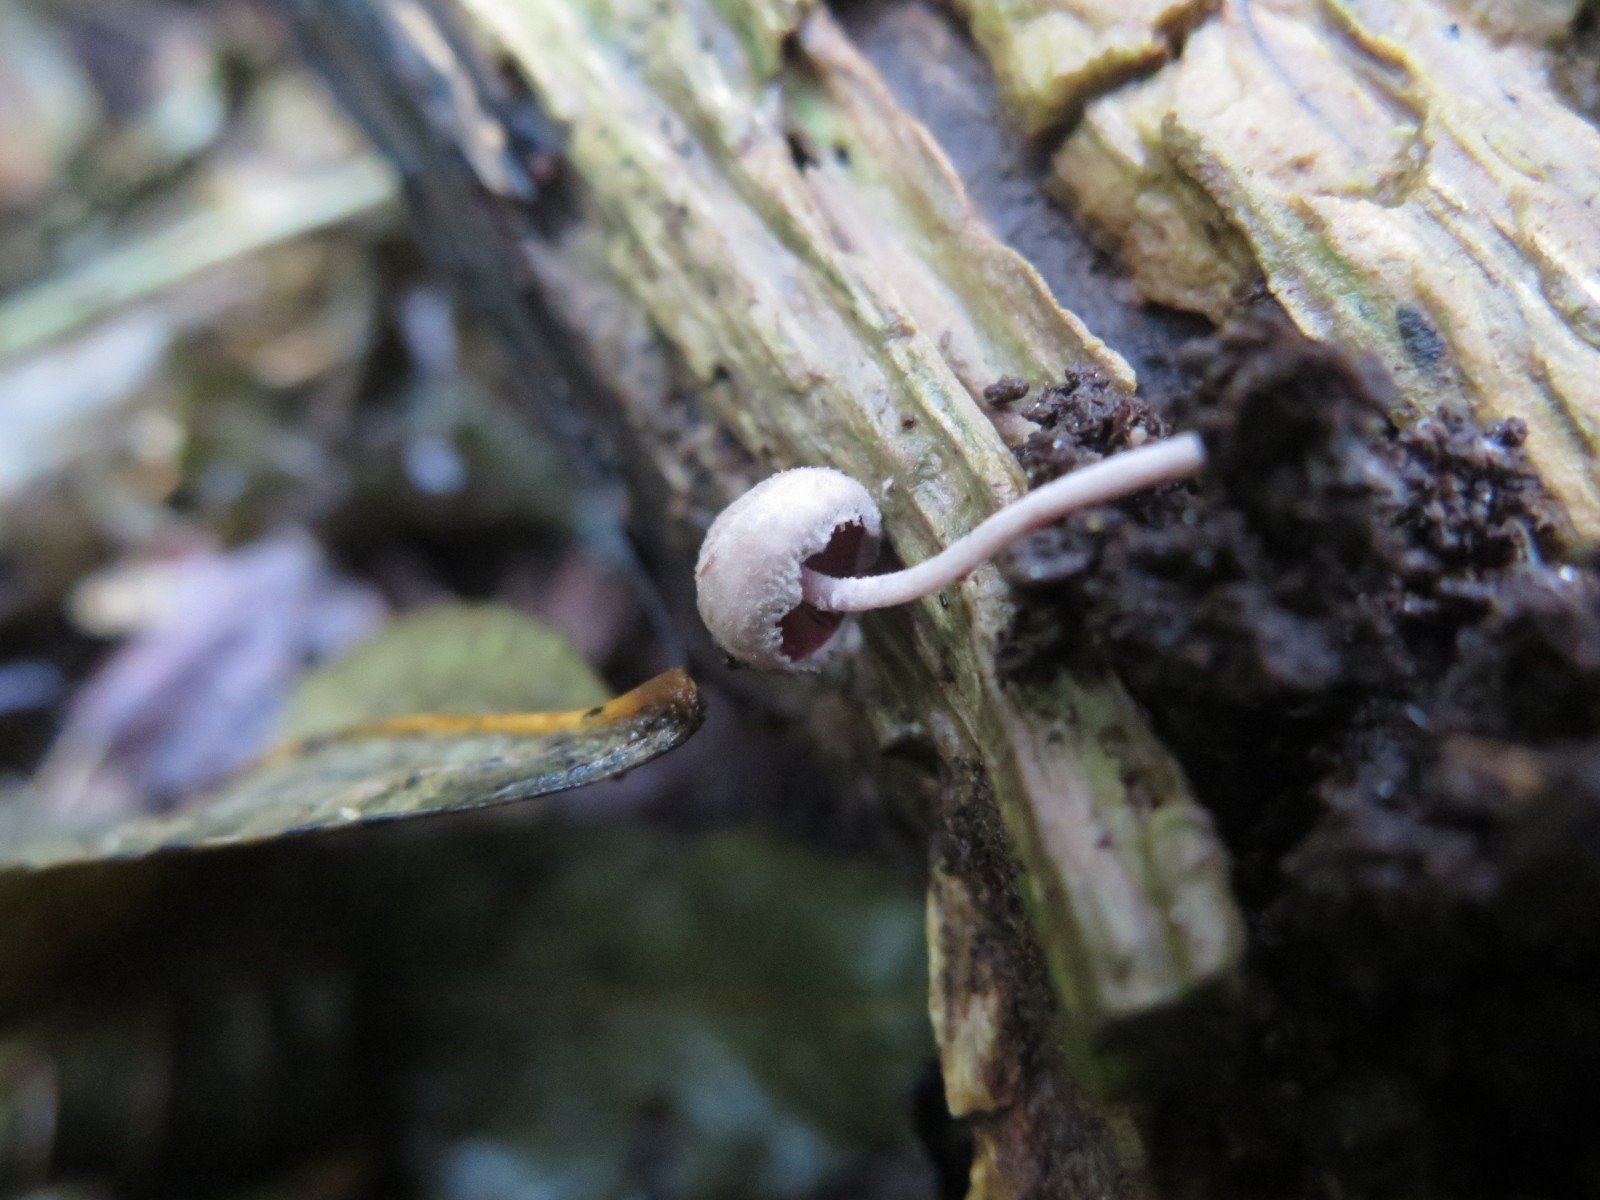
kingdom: Fungi
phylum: Basidiomycota
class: Agaricomycetes
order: Agaricales
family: Agaricaceae
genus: Melanophyllum
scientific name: Melanophyllum haematospermum
